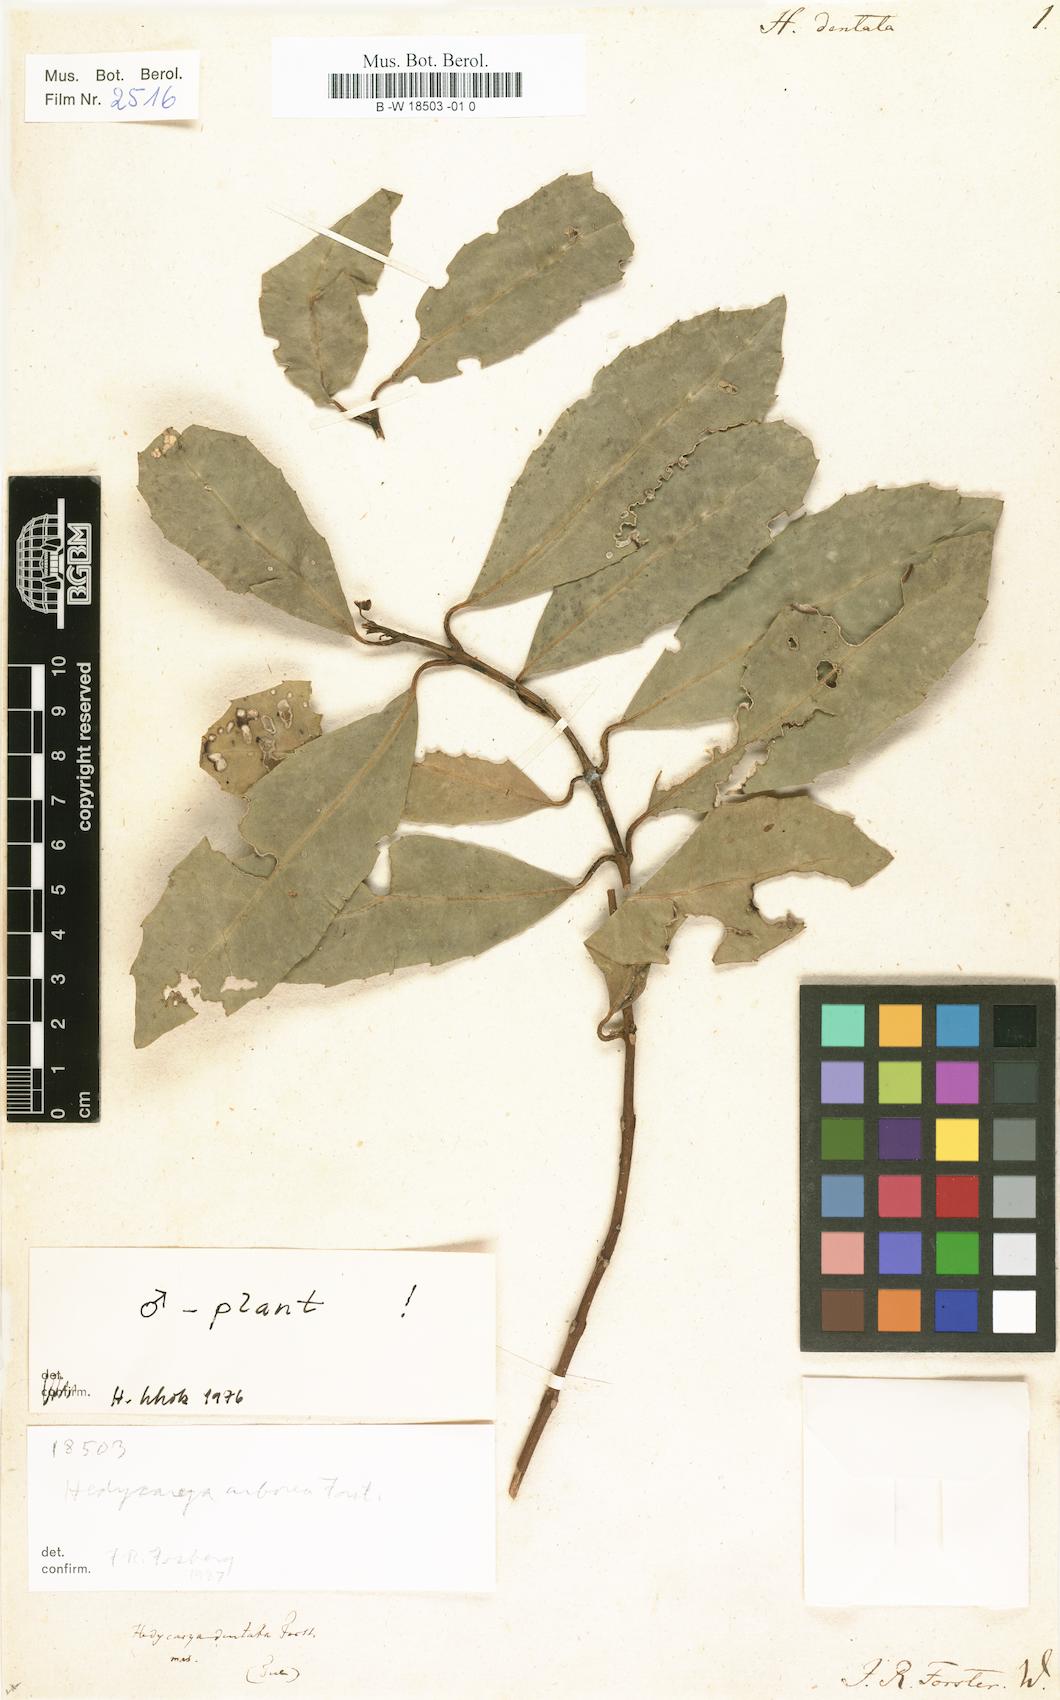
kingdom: Plantae
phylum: Tracheophyta
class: Magnoliopsida
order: Laurales
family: Monimiaceae
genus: Hedycarya
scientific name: Hedycarya arborea
